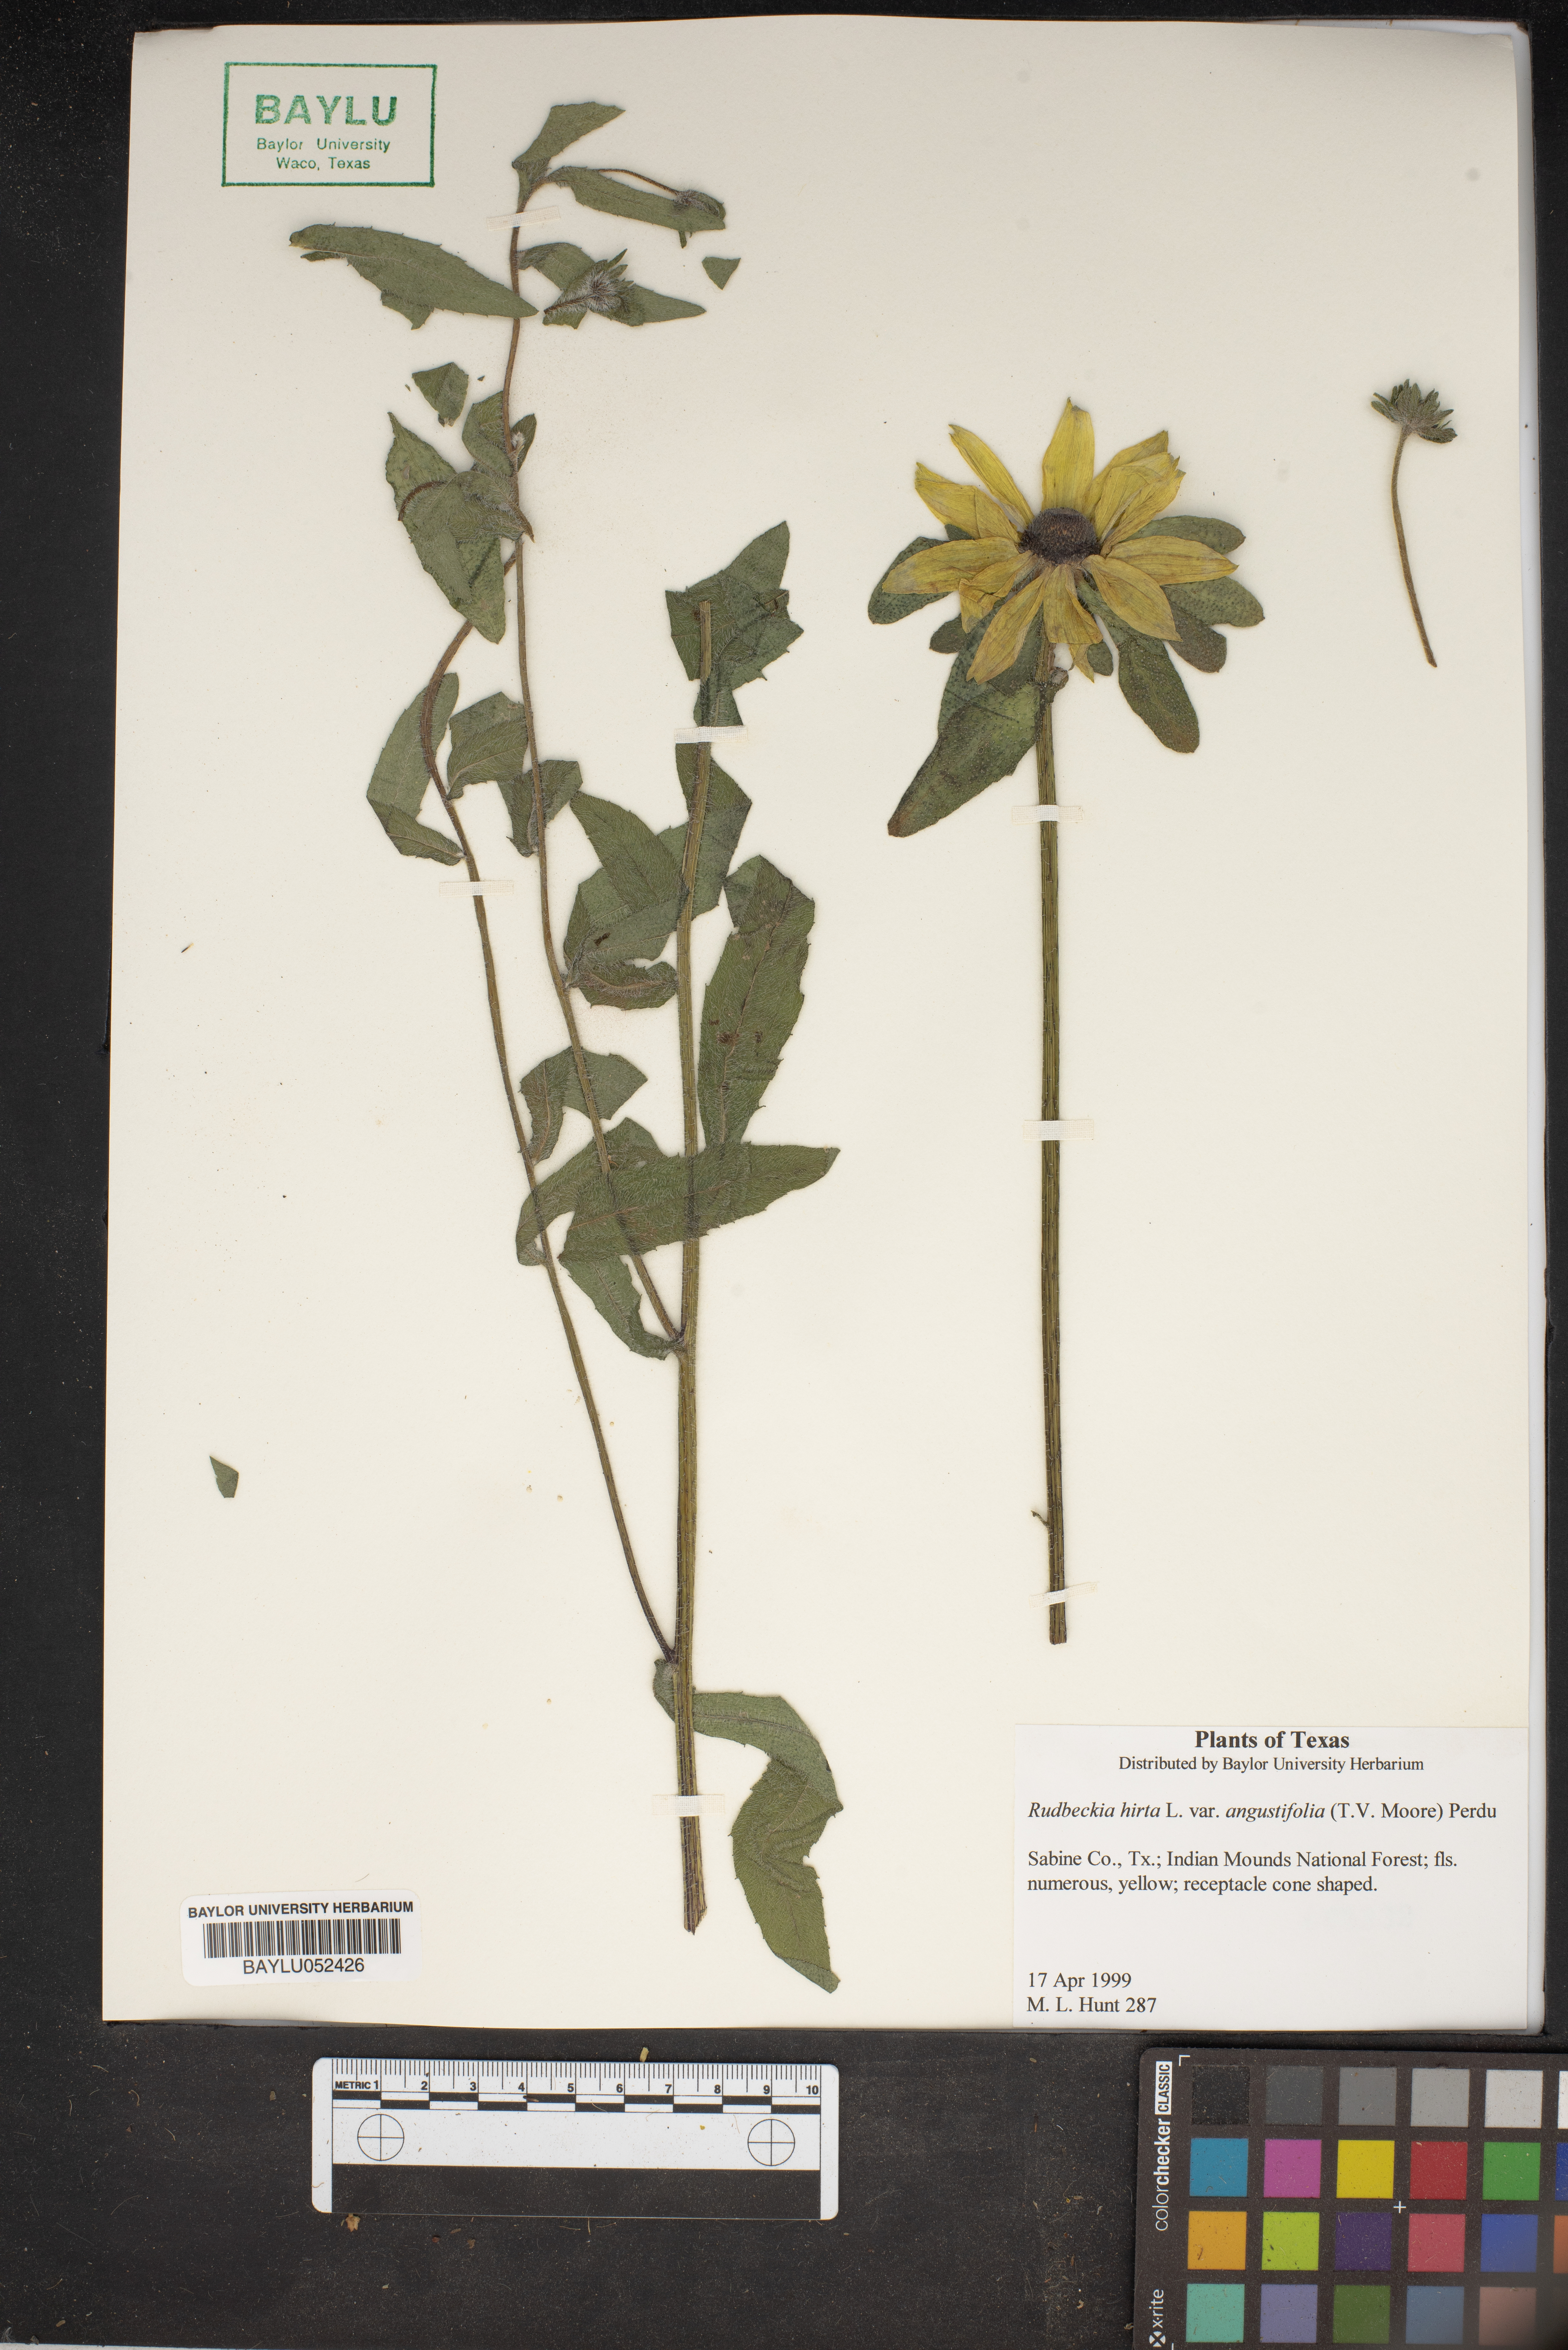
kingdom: Plantae
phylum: Tracheophyta
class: Magnoliopsida
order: Asterales
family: Asteraceae
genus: Rudbeckia
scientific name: Rudbeckia hirta
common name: Black-eyed-susan
